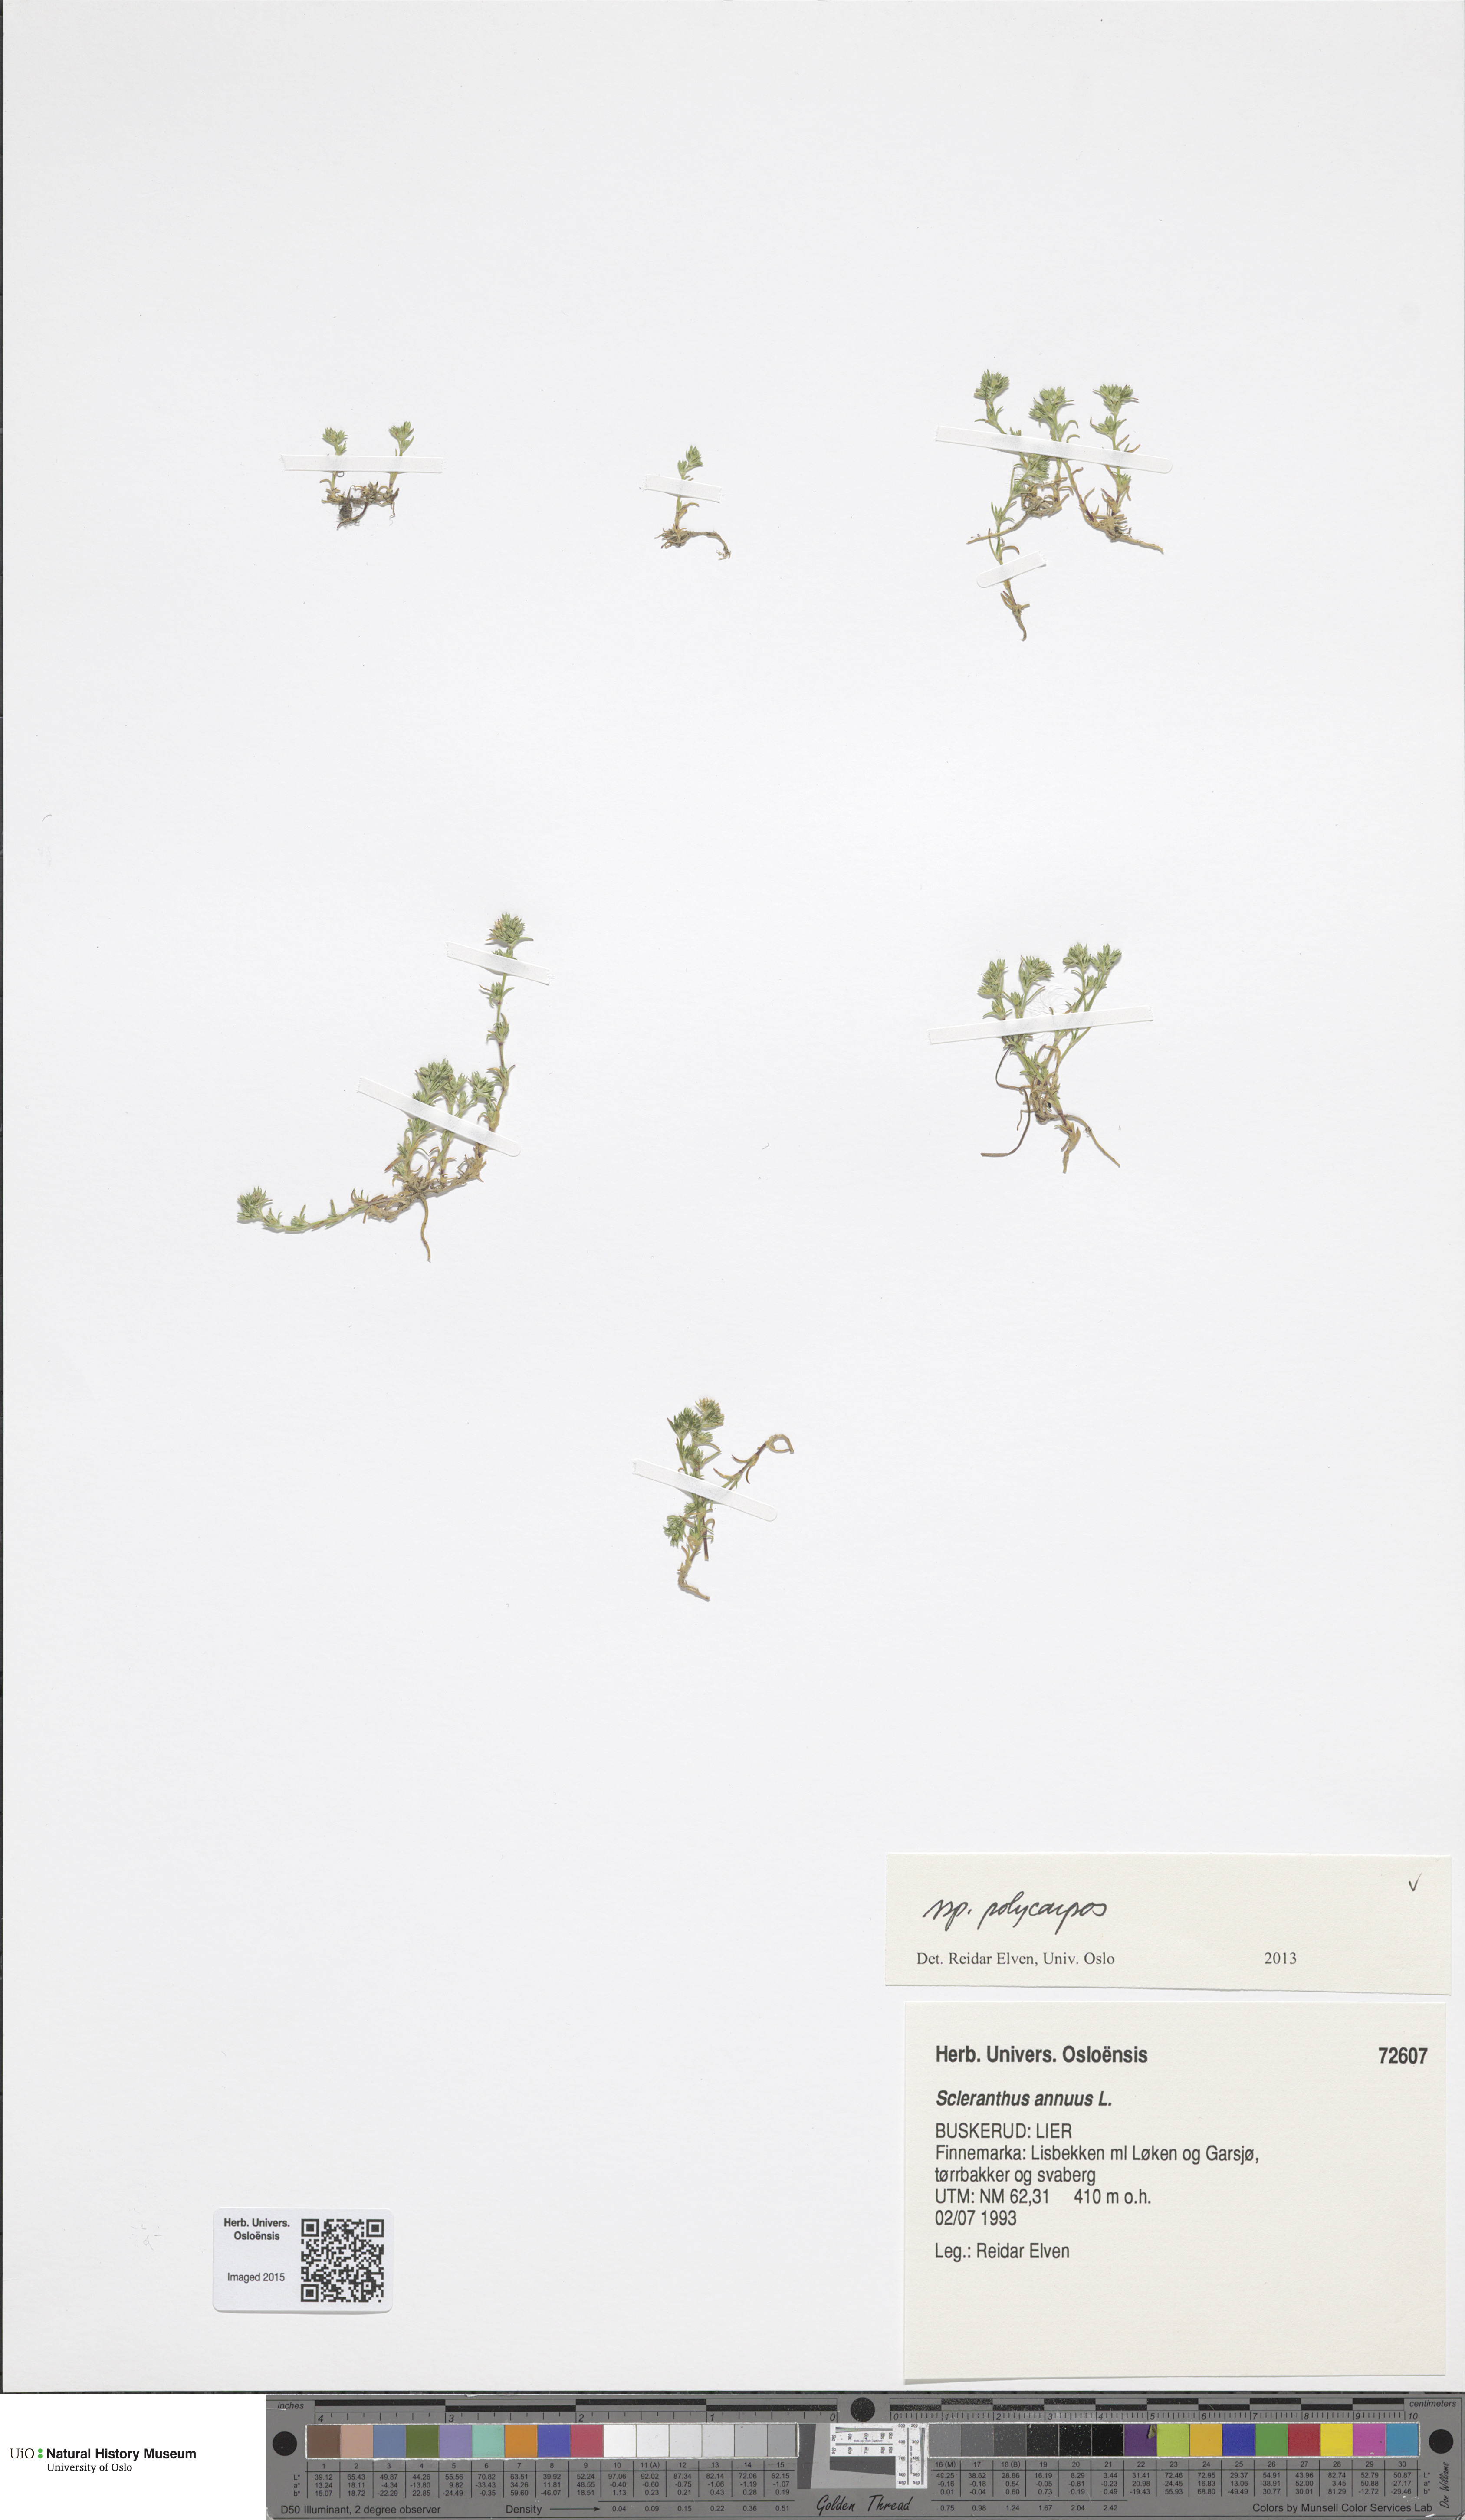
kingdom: Plantae
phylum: Tracheophyta
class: Magnoliopsida
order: Caryophyllales
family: Caryophyllaceae
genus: Scleranthus
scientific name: Scleranthus annuus
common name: Annual knawel
